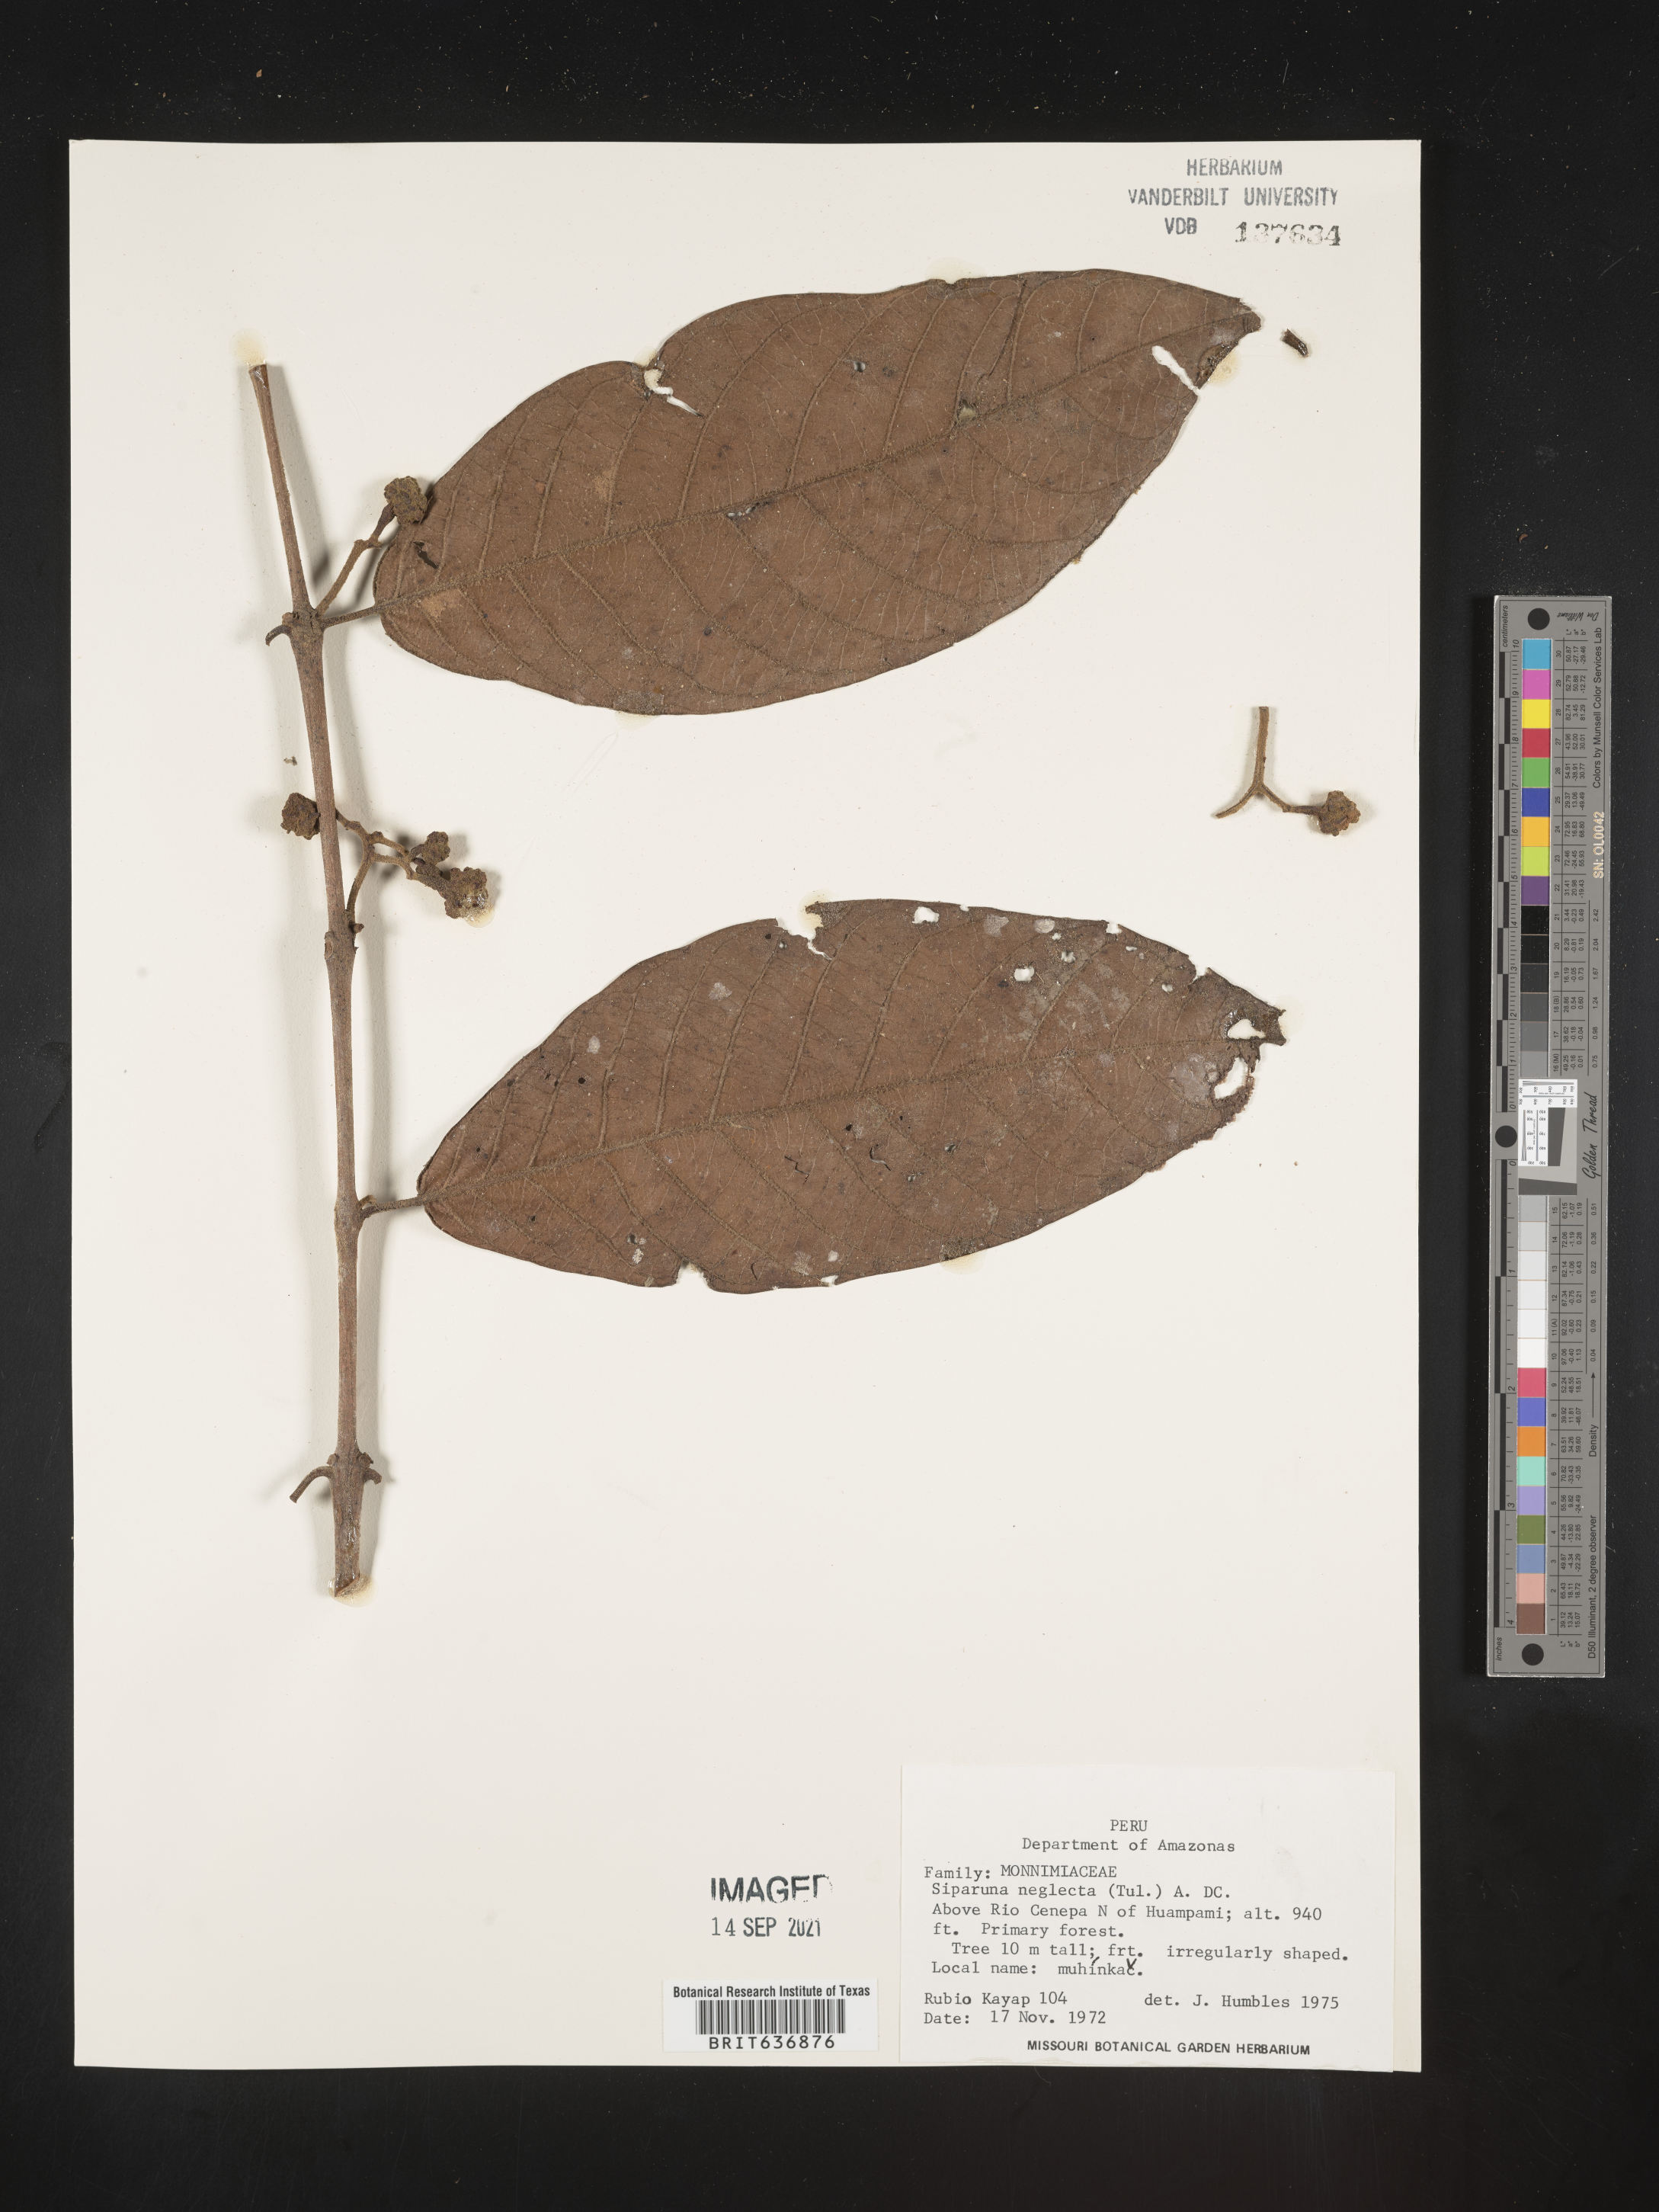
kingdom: Plantae
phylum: Tracheophyta
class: Magnoliopsida
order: Laurales
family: Siparunaceae
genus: Siparuna
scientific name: Siparuna
